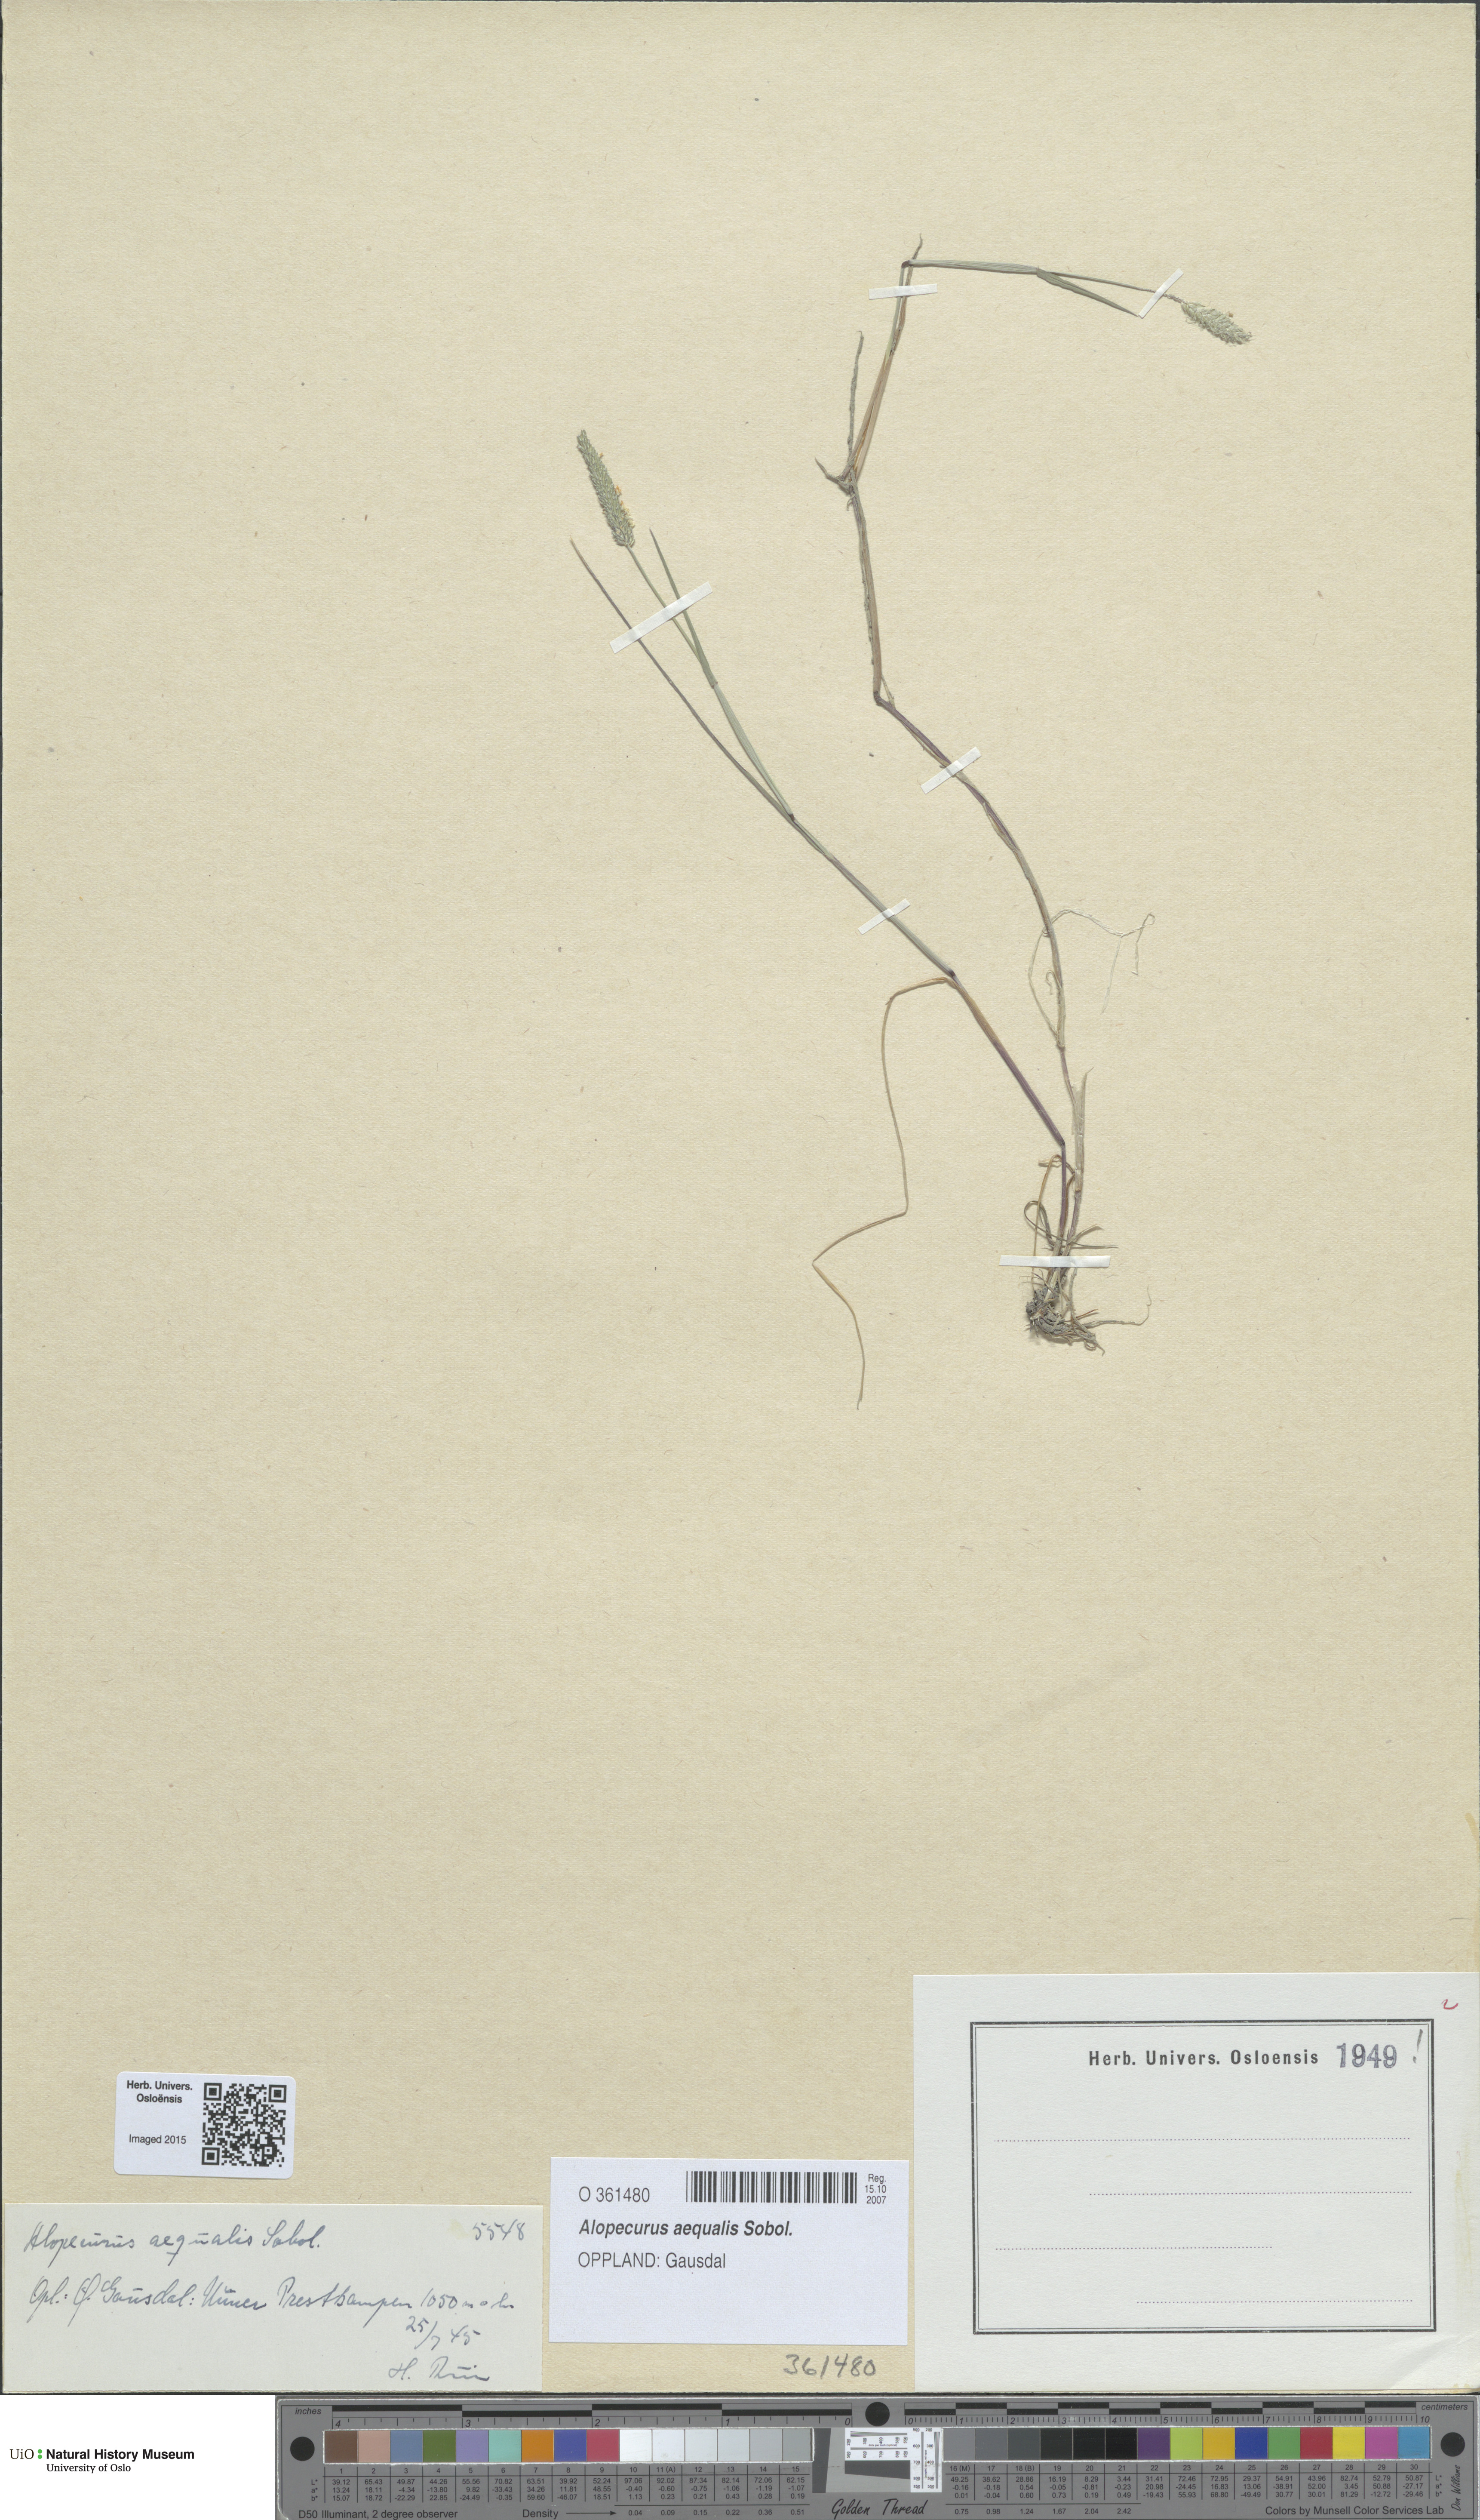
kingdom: Plantae
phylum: Tracheophyta
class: Liliopsida
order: Poales
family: Poaceae
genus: Alopecurus
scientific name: Alopecurus aequalis
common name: Orange foxtail
